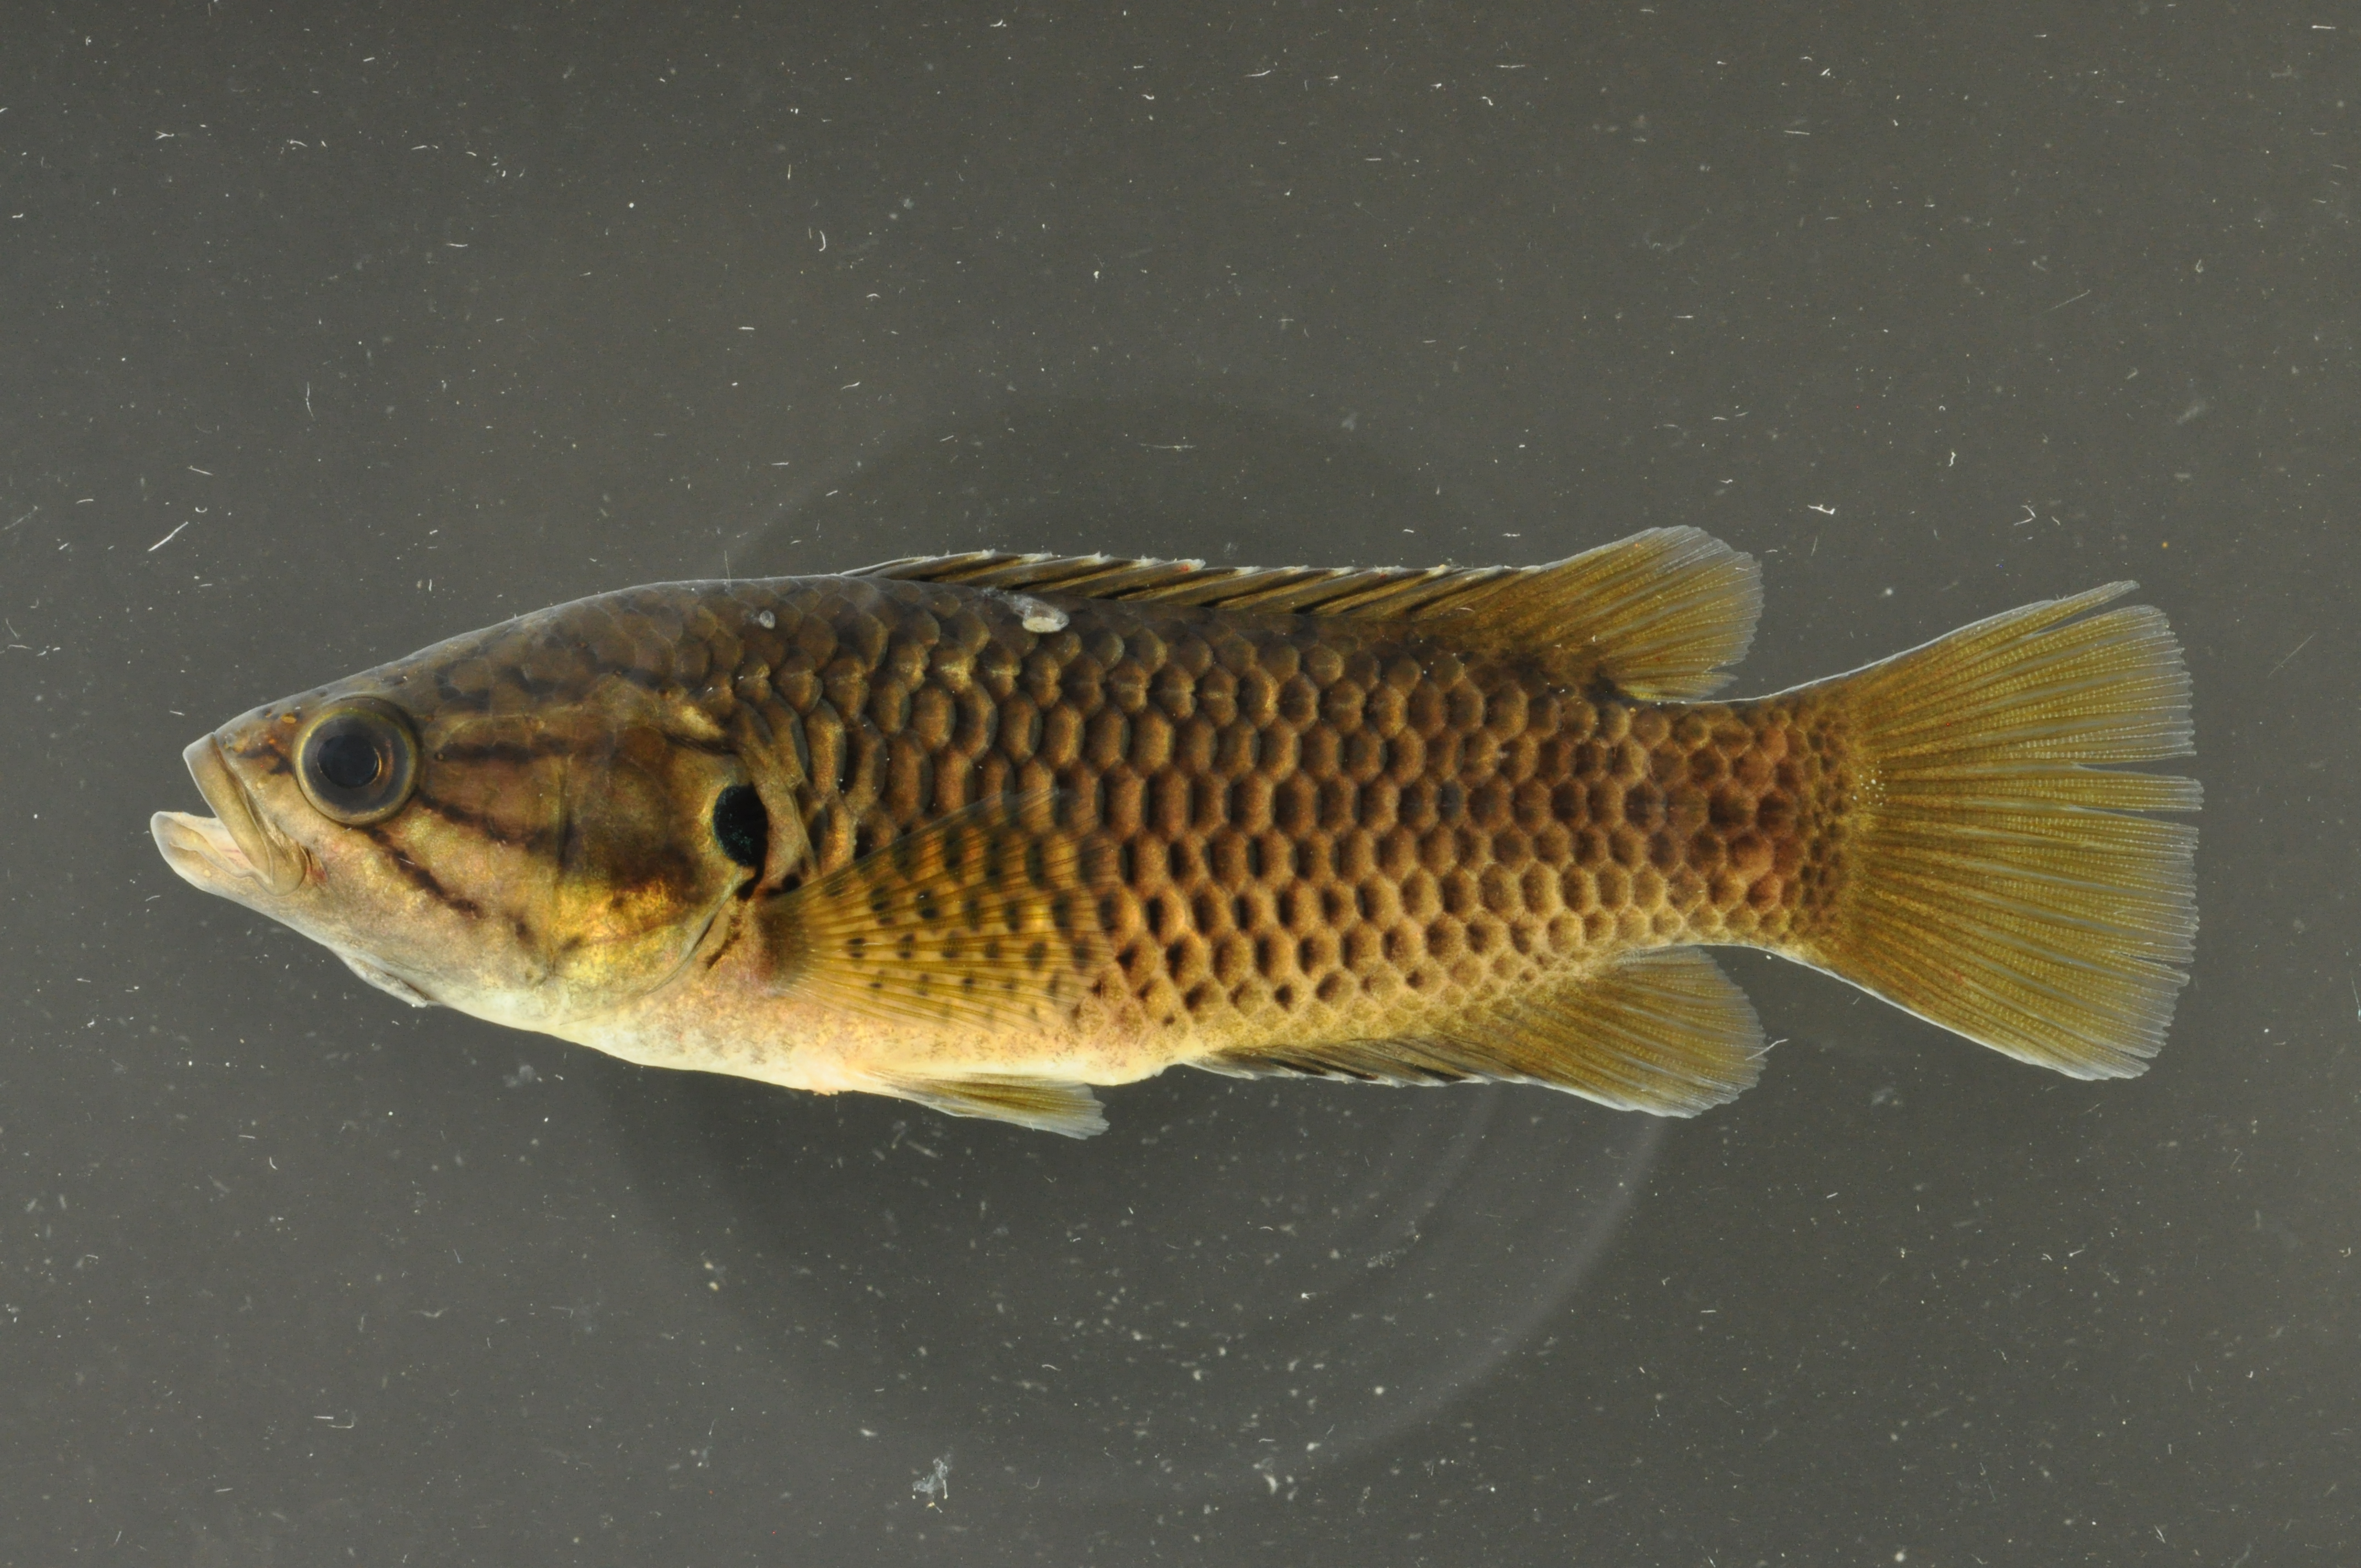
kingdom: Animalia
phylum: Chordata
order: Perciformes
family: Anabantidae
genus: Sandelia
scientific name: Sandelia capensis
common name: Cape kurper
